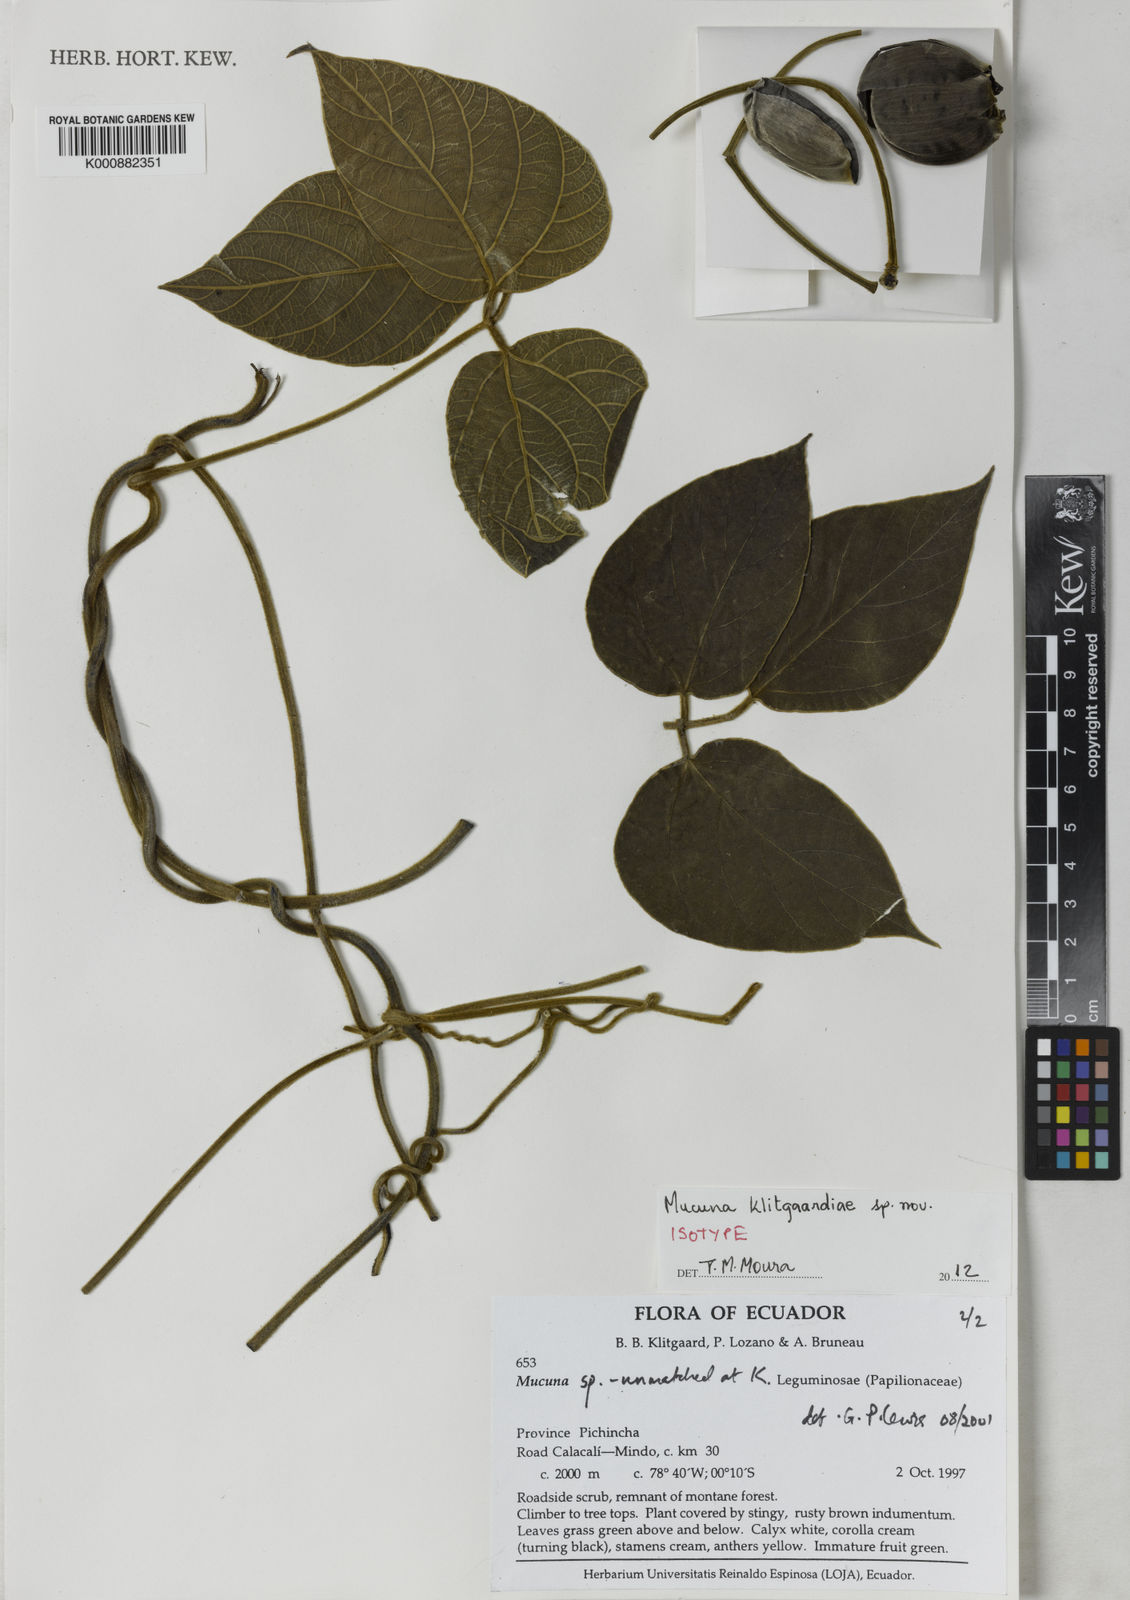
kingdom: Plantae
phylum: Tracheophyta
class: Magnoliopsida
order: Fabales
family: Fabaceae
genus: Mucuna
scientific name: Mucuna
